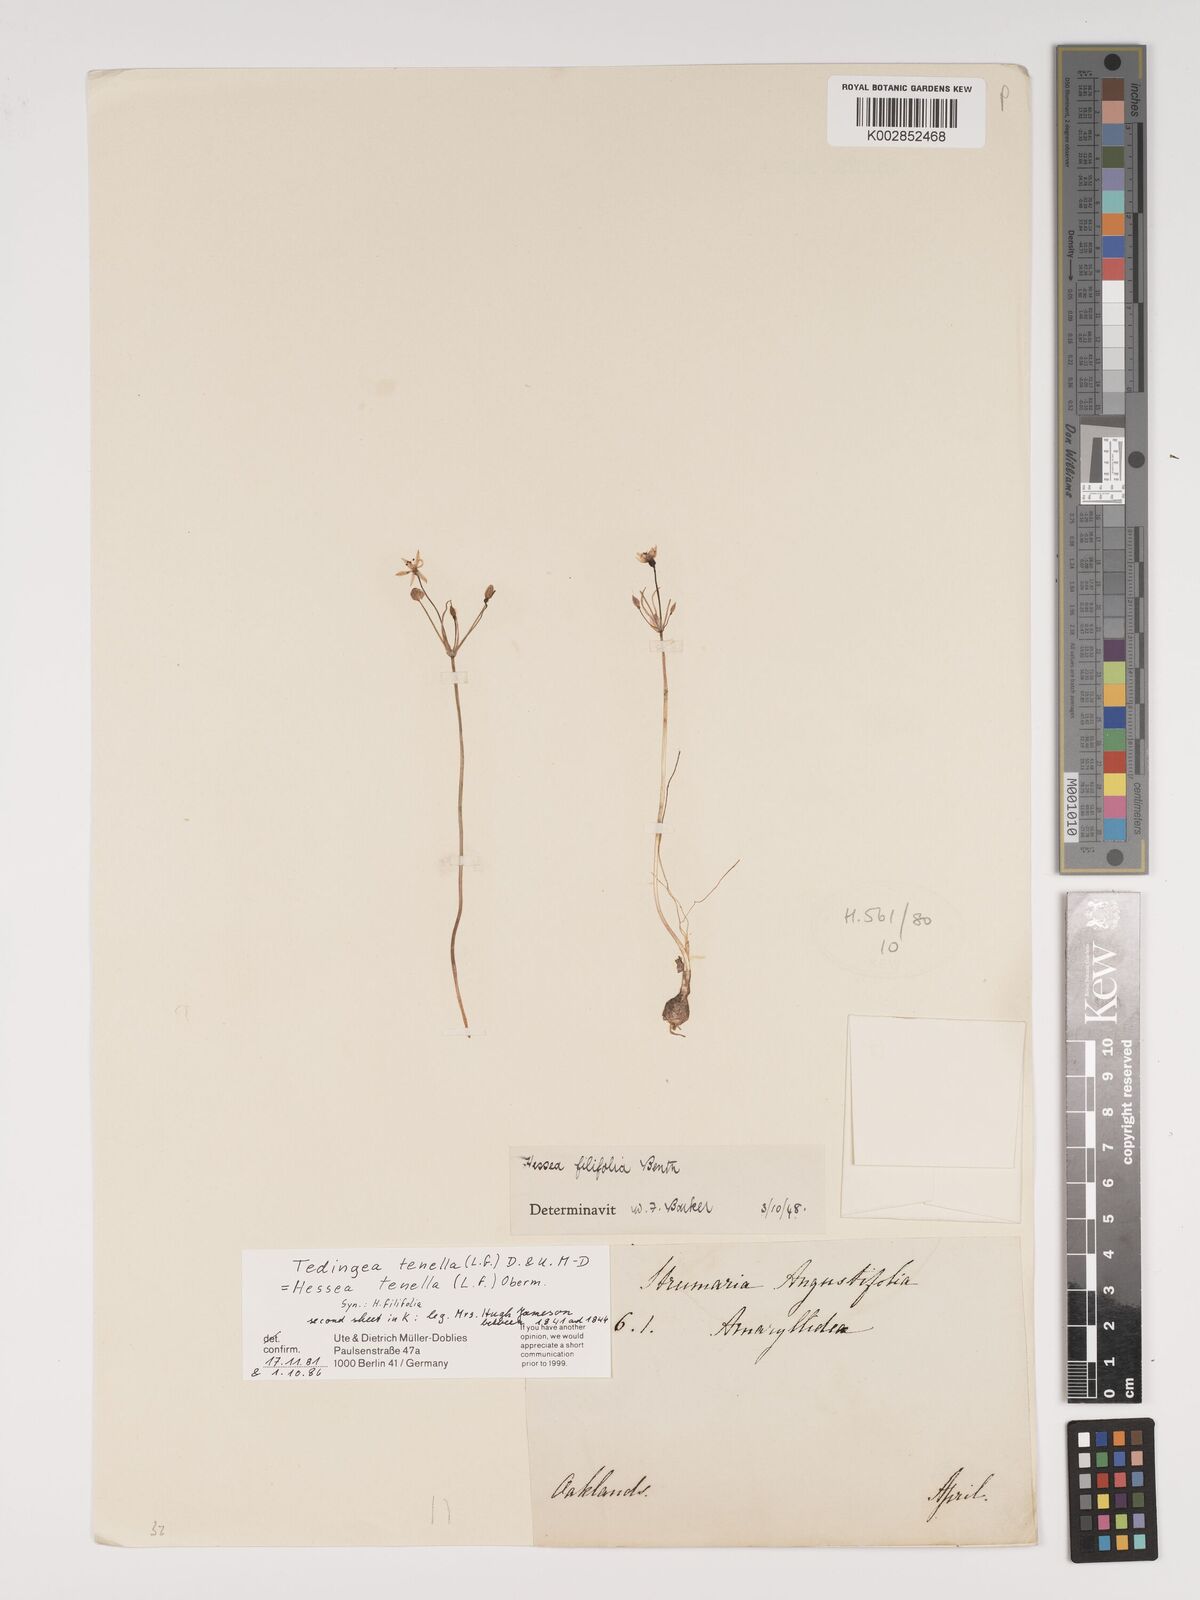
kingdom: Plantae
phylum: Tracheophyta
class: Liliopsida
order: Asparagales
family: Amaryllidaceae
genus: Strumaria
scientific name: Strumaria tenella
